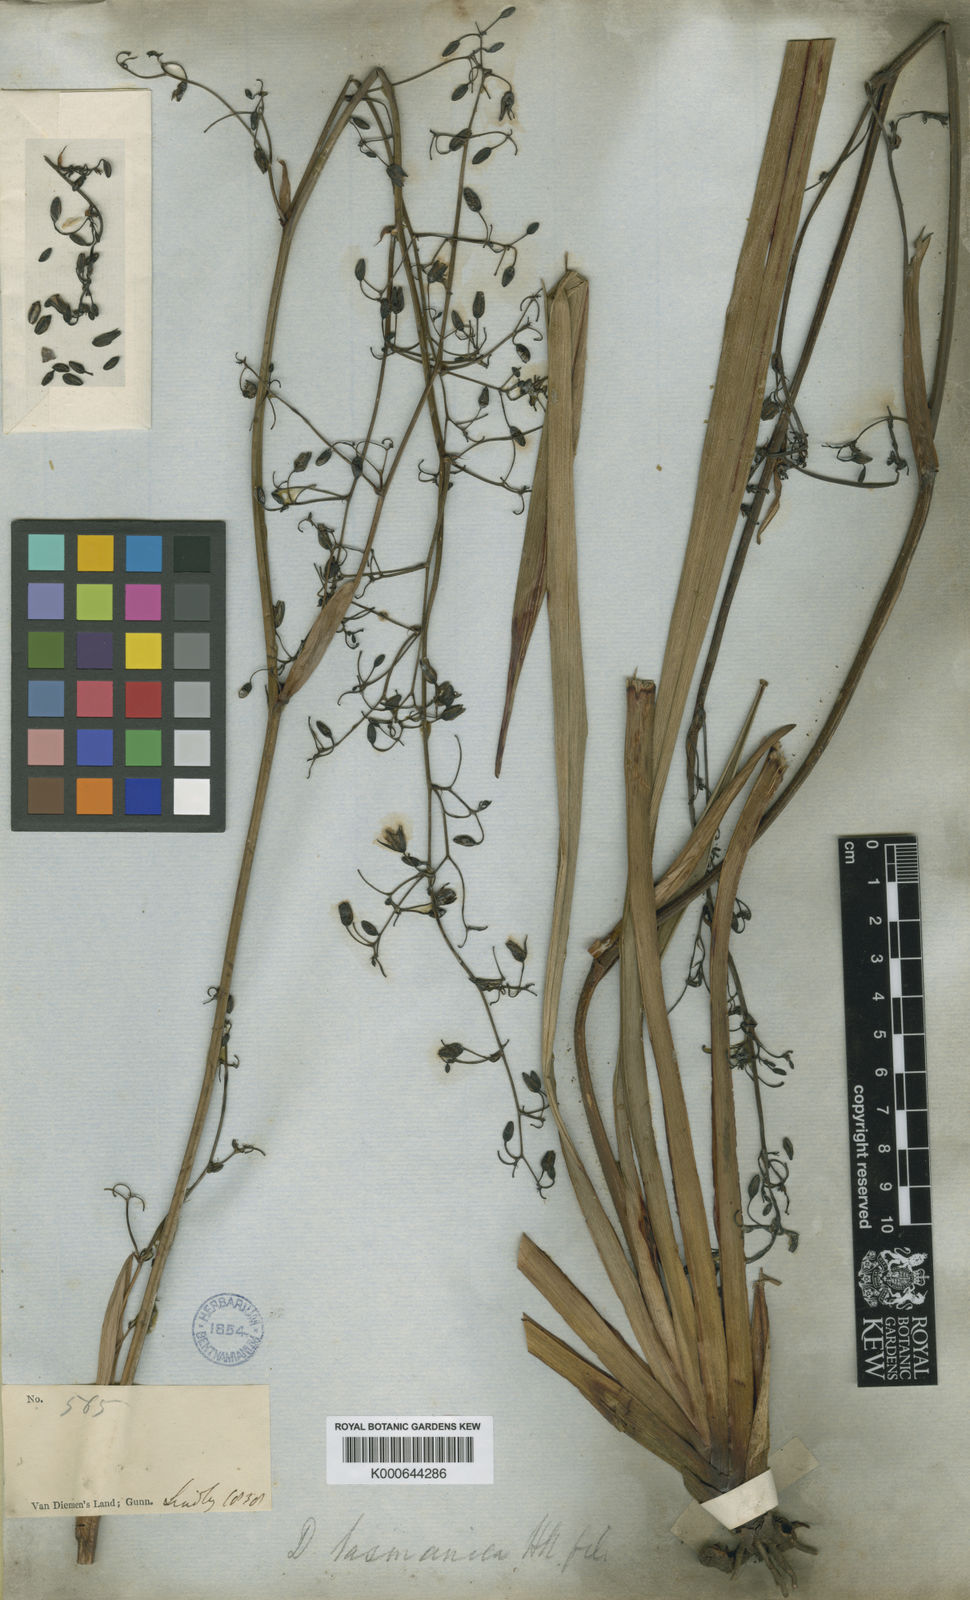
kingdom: Plantae
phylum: Tracheophyta
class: Liliopsida
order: Asparagales
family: Asphodelaceae
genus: Dianella
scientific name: Dianella tasmanica
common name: Tasman flax-lily
